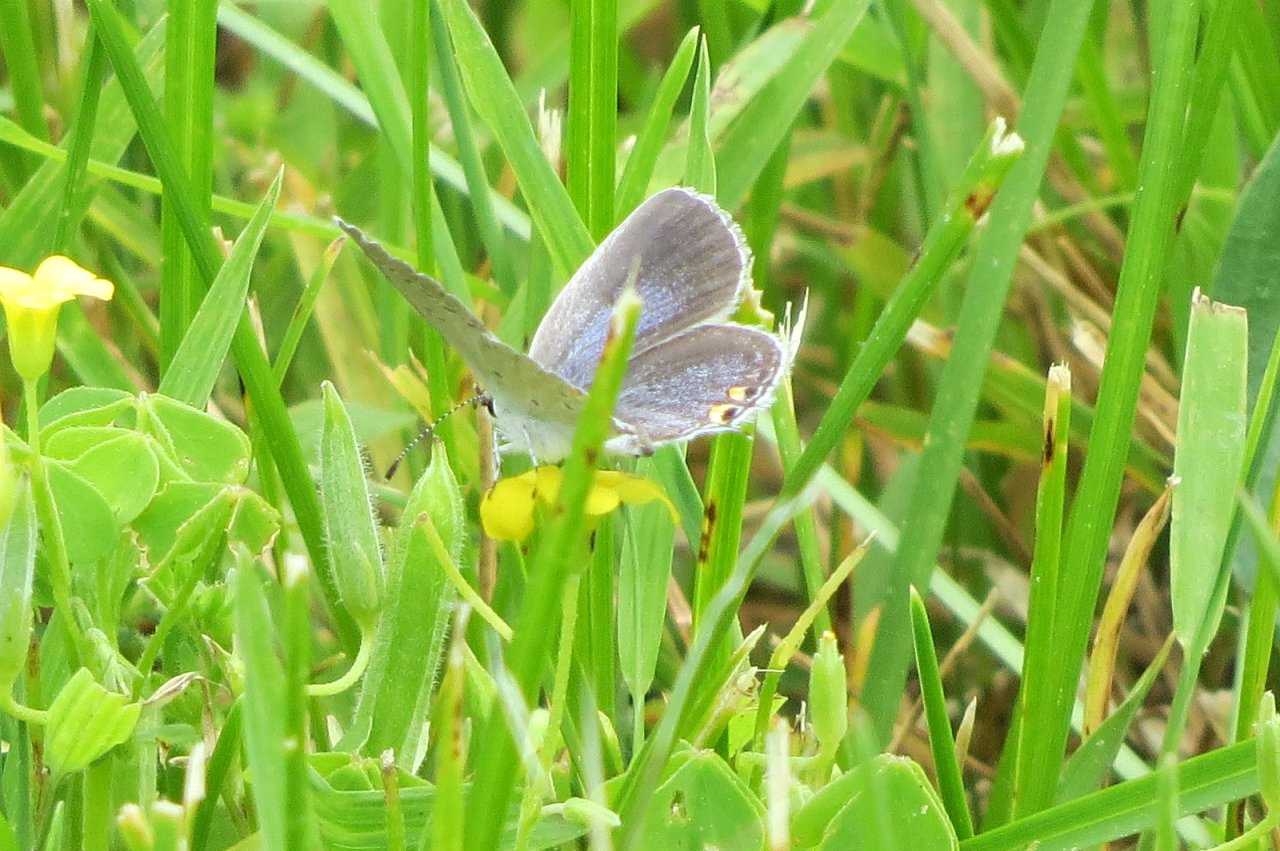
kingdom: Animalia
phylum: Arthropoda
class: Insecta
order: Lepidoptera
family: Lycaenidae
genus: Elkalyce
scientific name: Elkalyce comyntas
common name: Eastern Tailed-Blue
